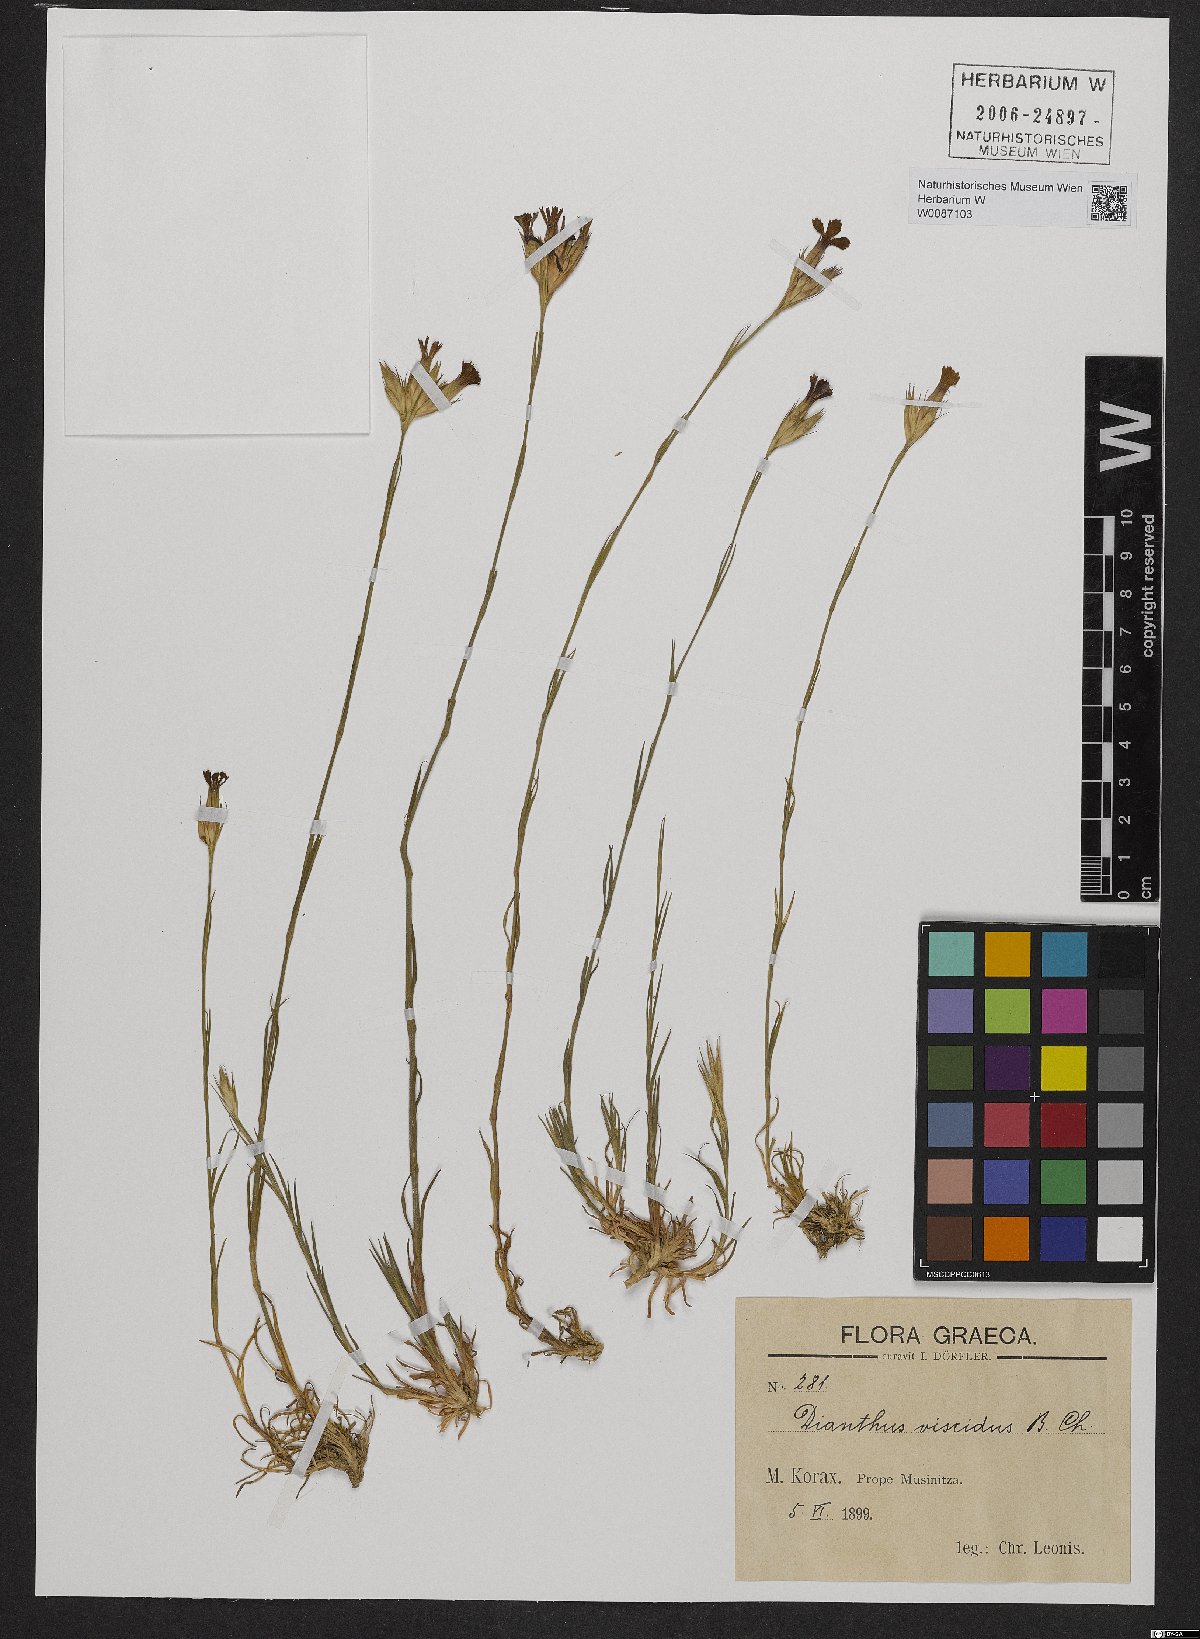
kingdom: Plantae
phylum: Tracheophyta
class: Magnoliopsida
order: Caryophyllales
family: Caryophyllaceae
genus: Dianthus
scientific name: Dianthus viscidus
